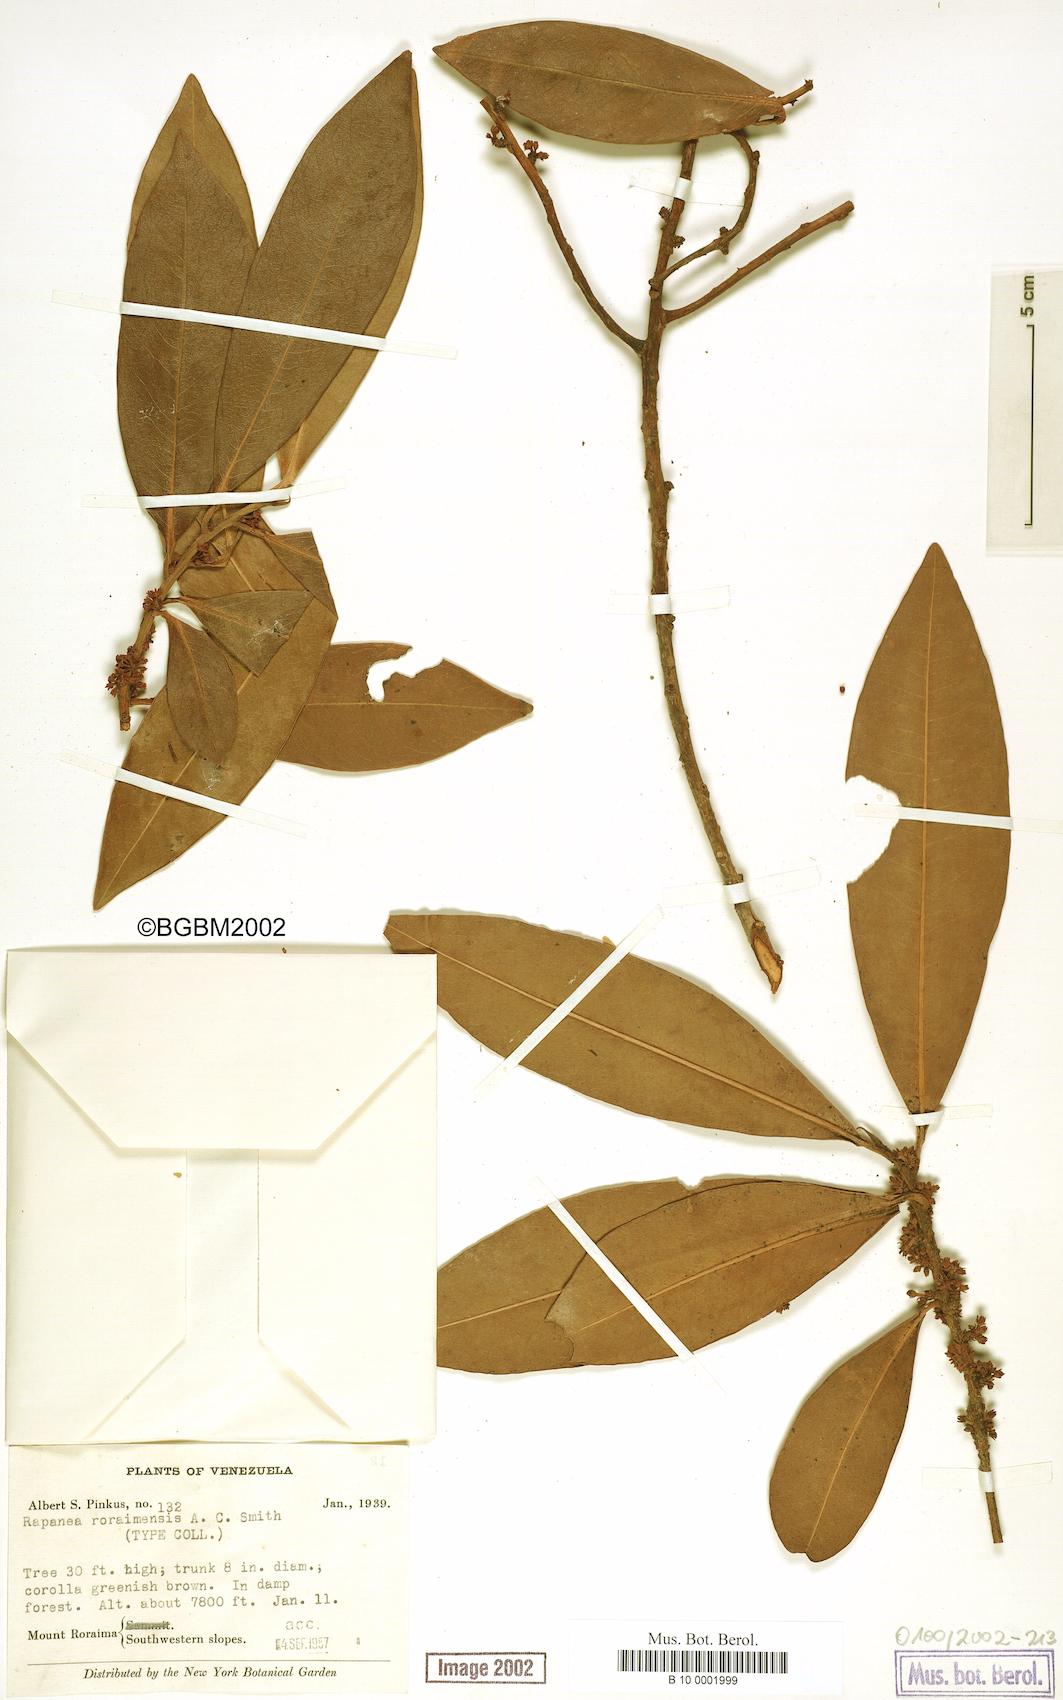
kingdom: Plantae
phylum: Tracheophyta
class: Magnoliopsida
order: Ericales
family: Primulaceae
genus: Myrsine
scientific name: Myrsine nitida
